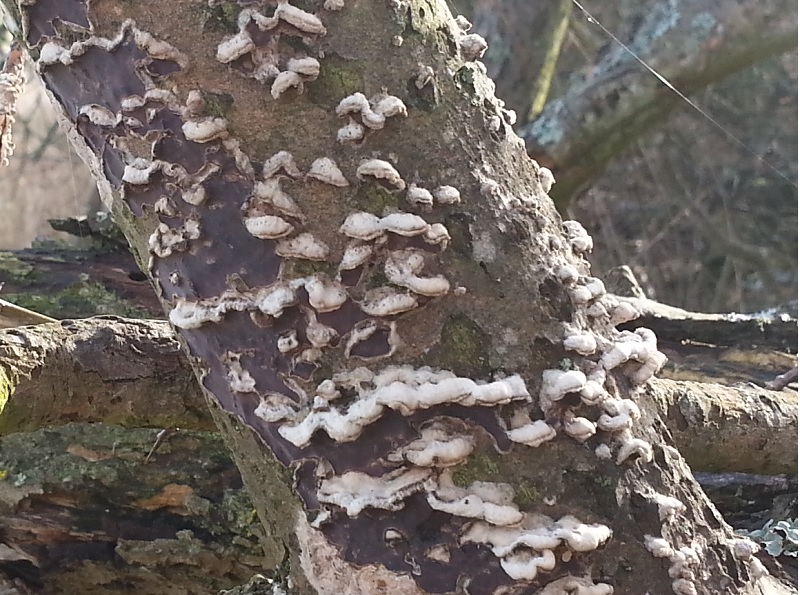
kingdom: Fungi
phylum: Basidiomycota
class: Agaricomycetes
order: Agaricales
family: Cyphellaceae
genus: Chondrostereum
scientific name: Chondrostereum purpureum
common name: purpurlædersvamp
